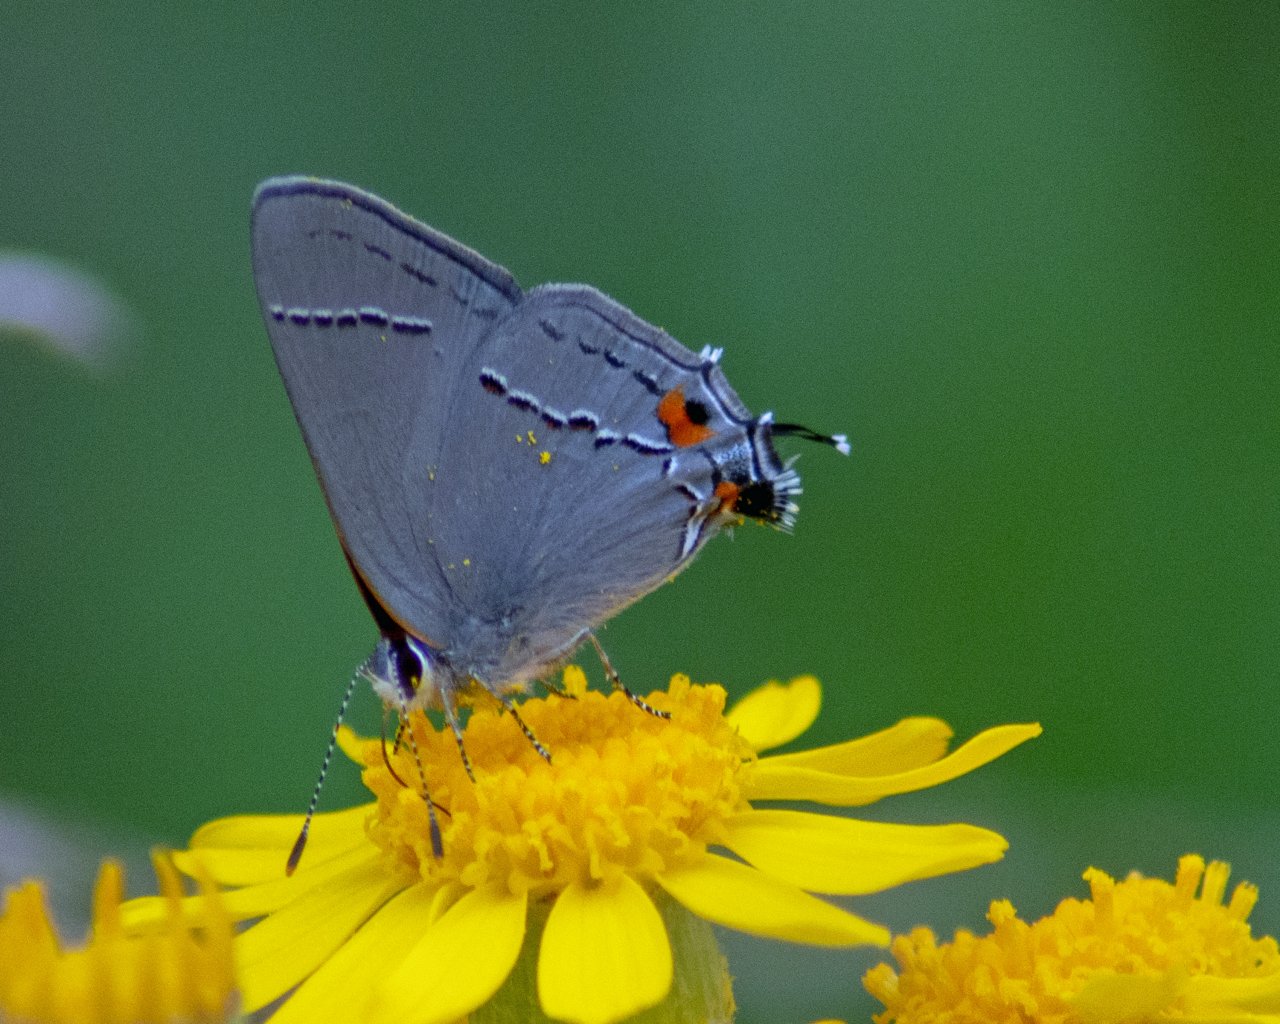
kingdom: Animalia
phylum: Arthropoda
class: Insecta
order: Lepidoptera
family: Lycaenidae
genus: Strymon
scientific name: Strymon melinus
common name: Gray Hairstreak
